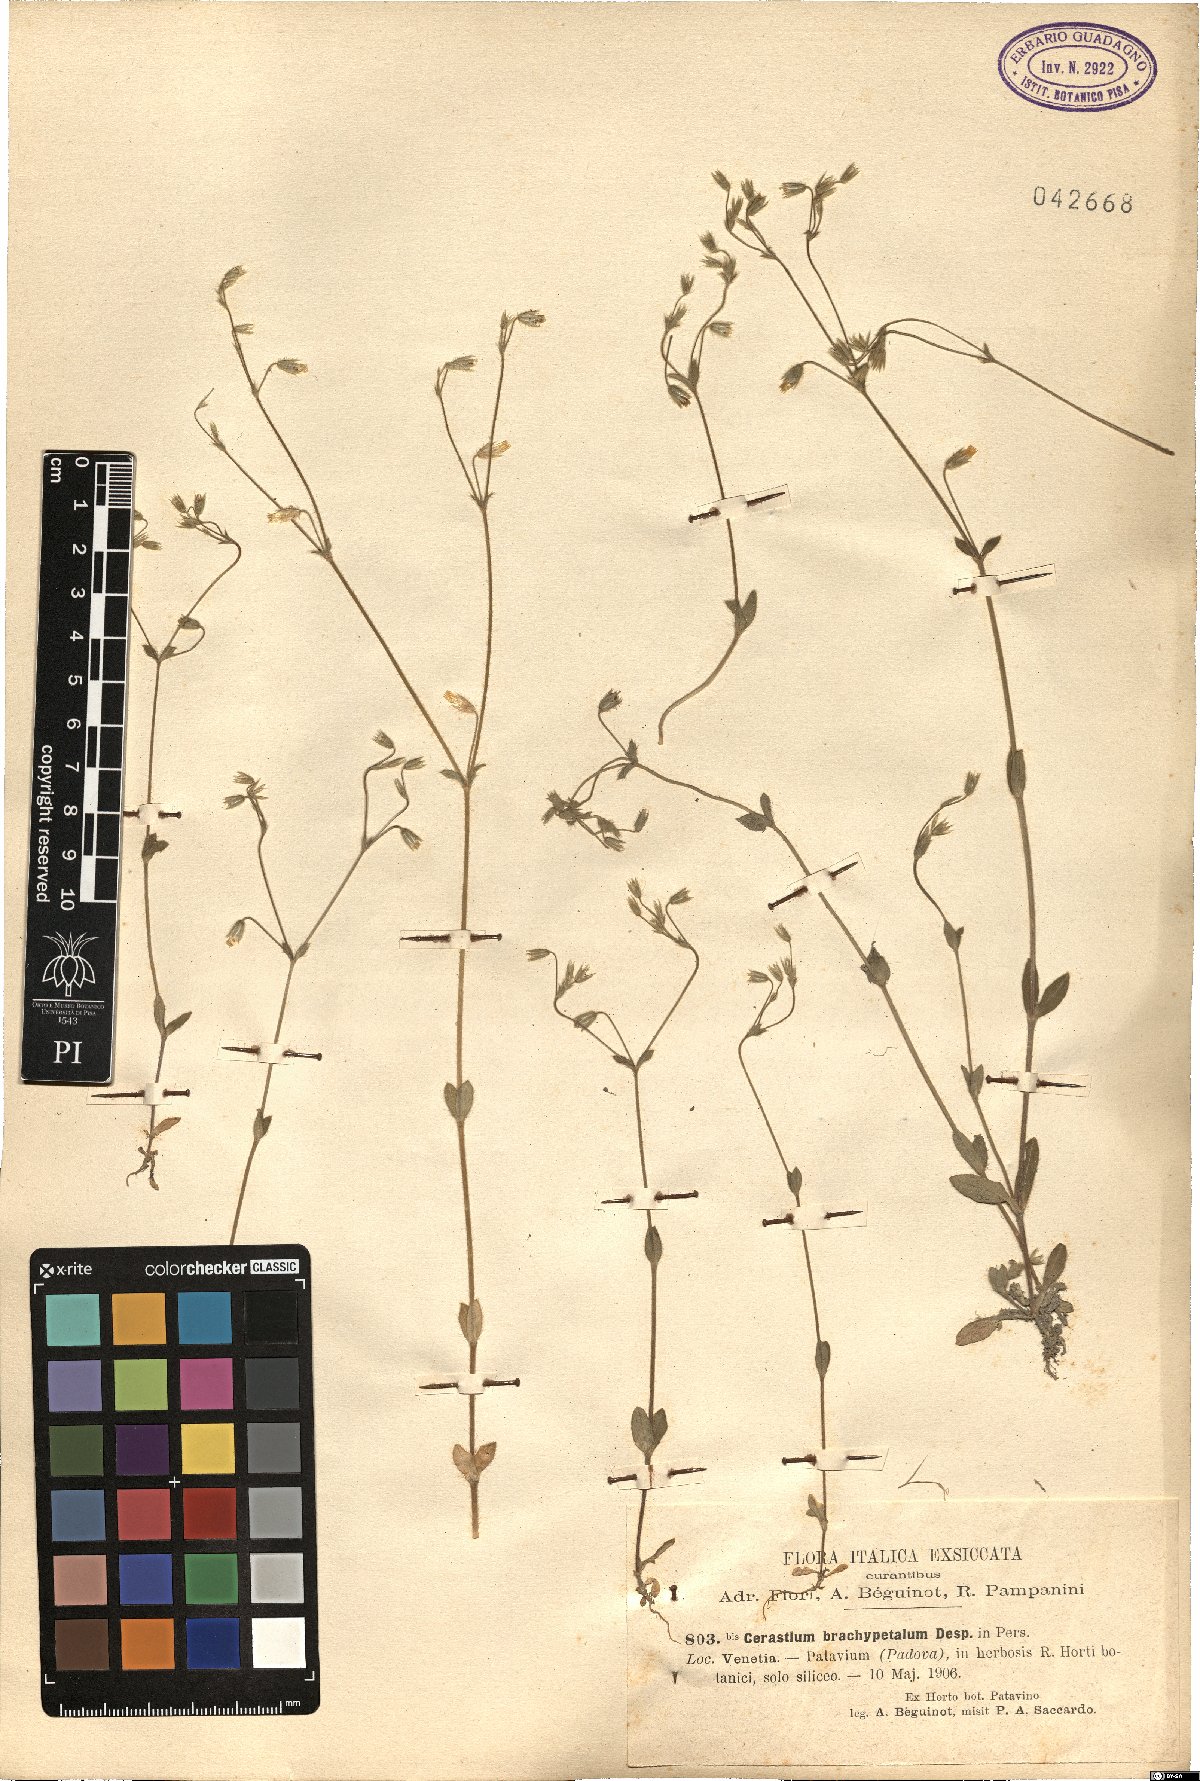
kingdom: Plantae
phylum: Tracheophyta
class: Magnoliopsida
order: Caryophyllales
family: Caryophyllaceae
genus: Cerastium
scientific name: Cerastium brachypetalum
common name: Grey mouse-ear
